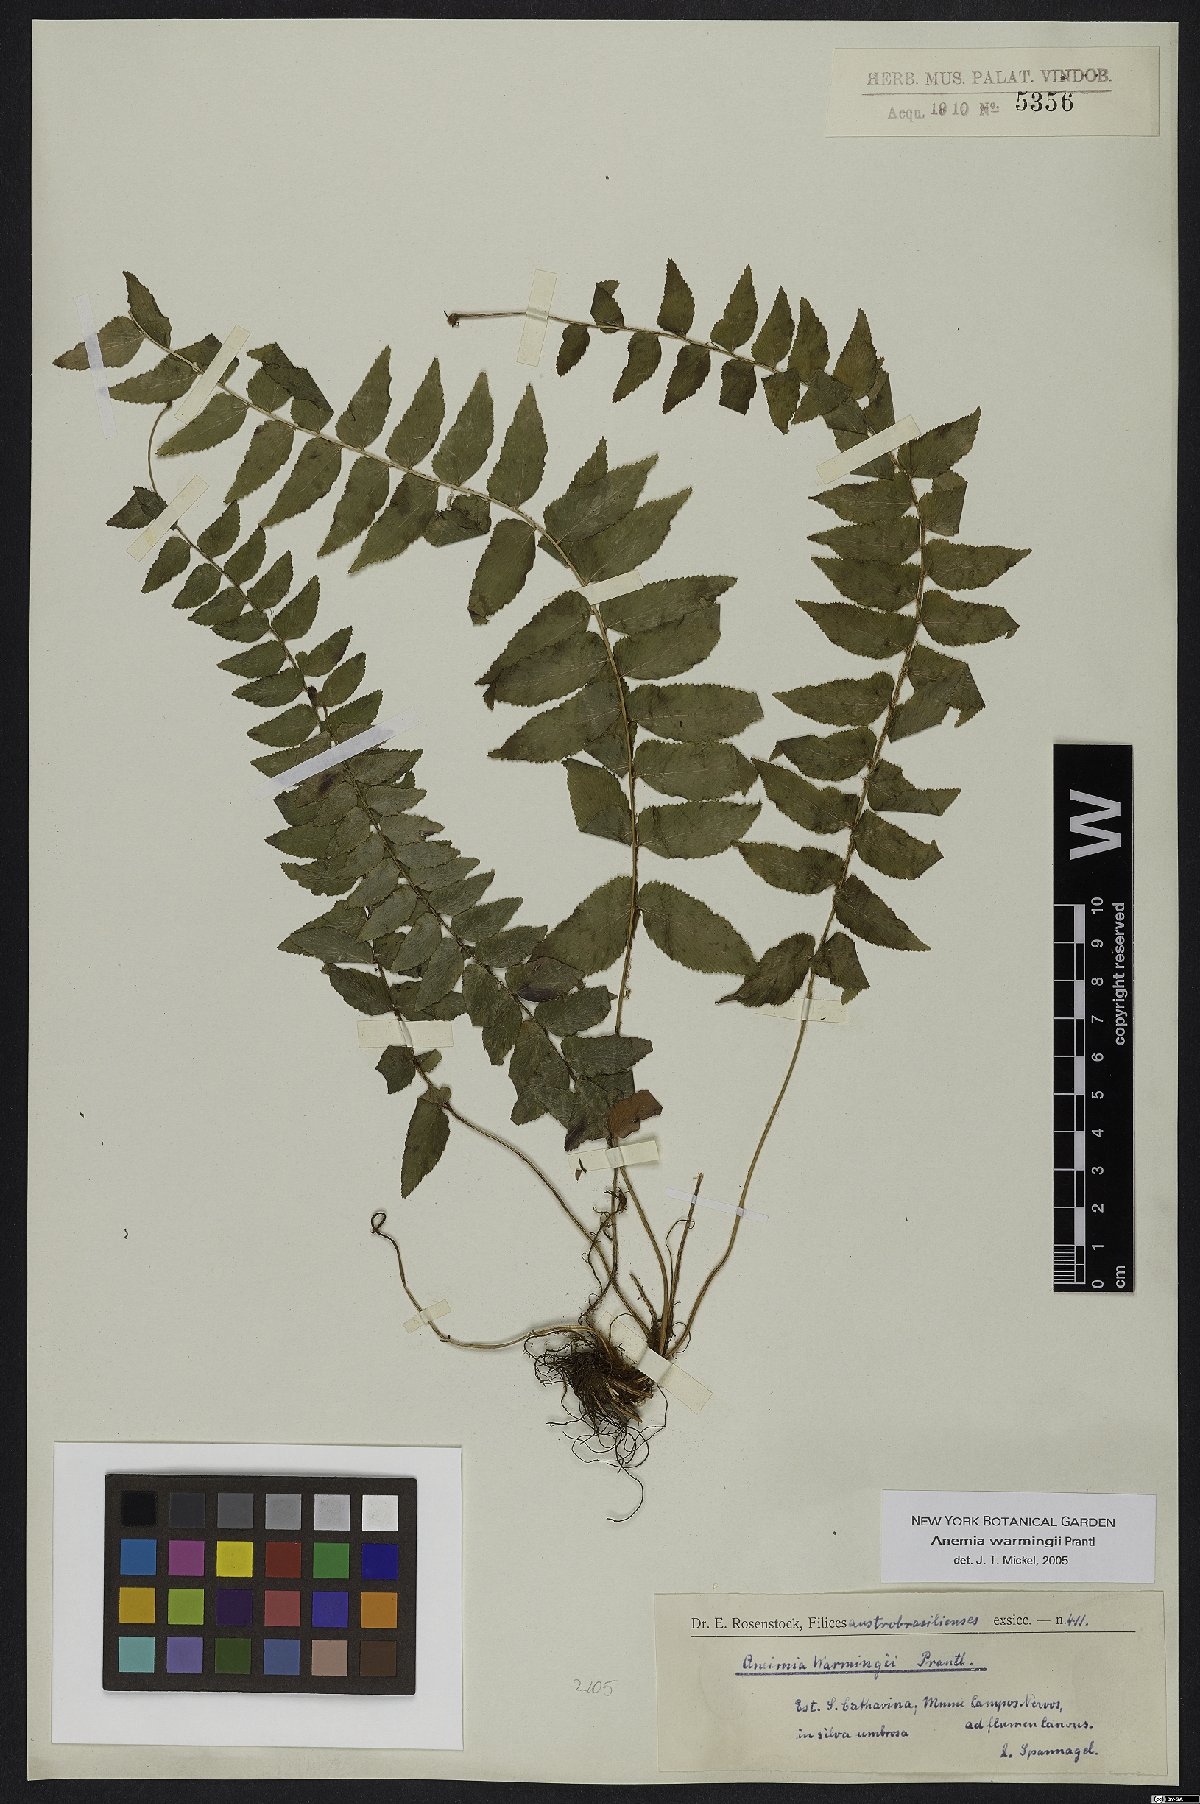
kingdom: Plantae
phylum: Tracheophyta
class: Polypodiopsida
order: Schizaeales
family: Anemiaceae
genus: Anemia
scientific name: Anemia warmingii
